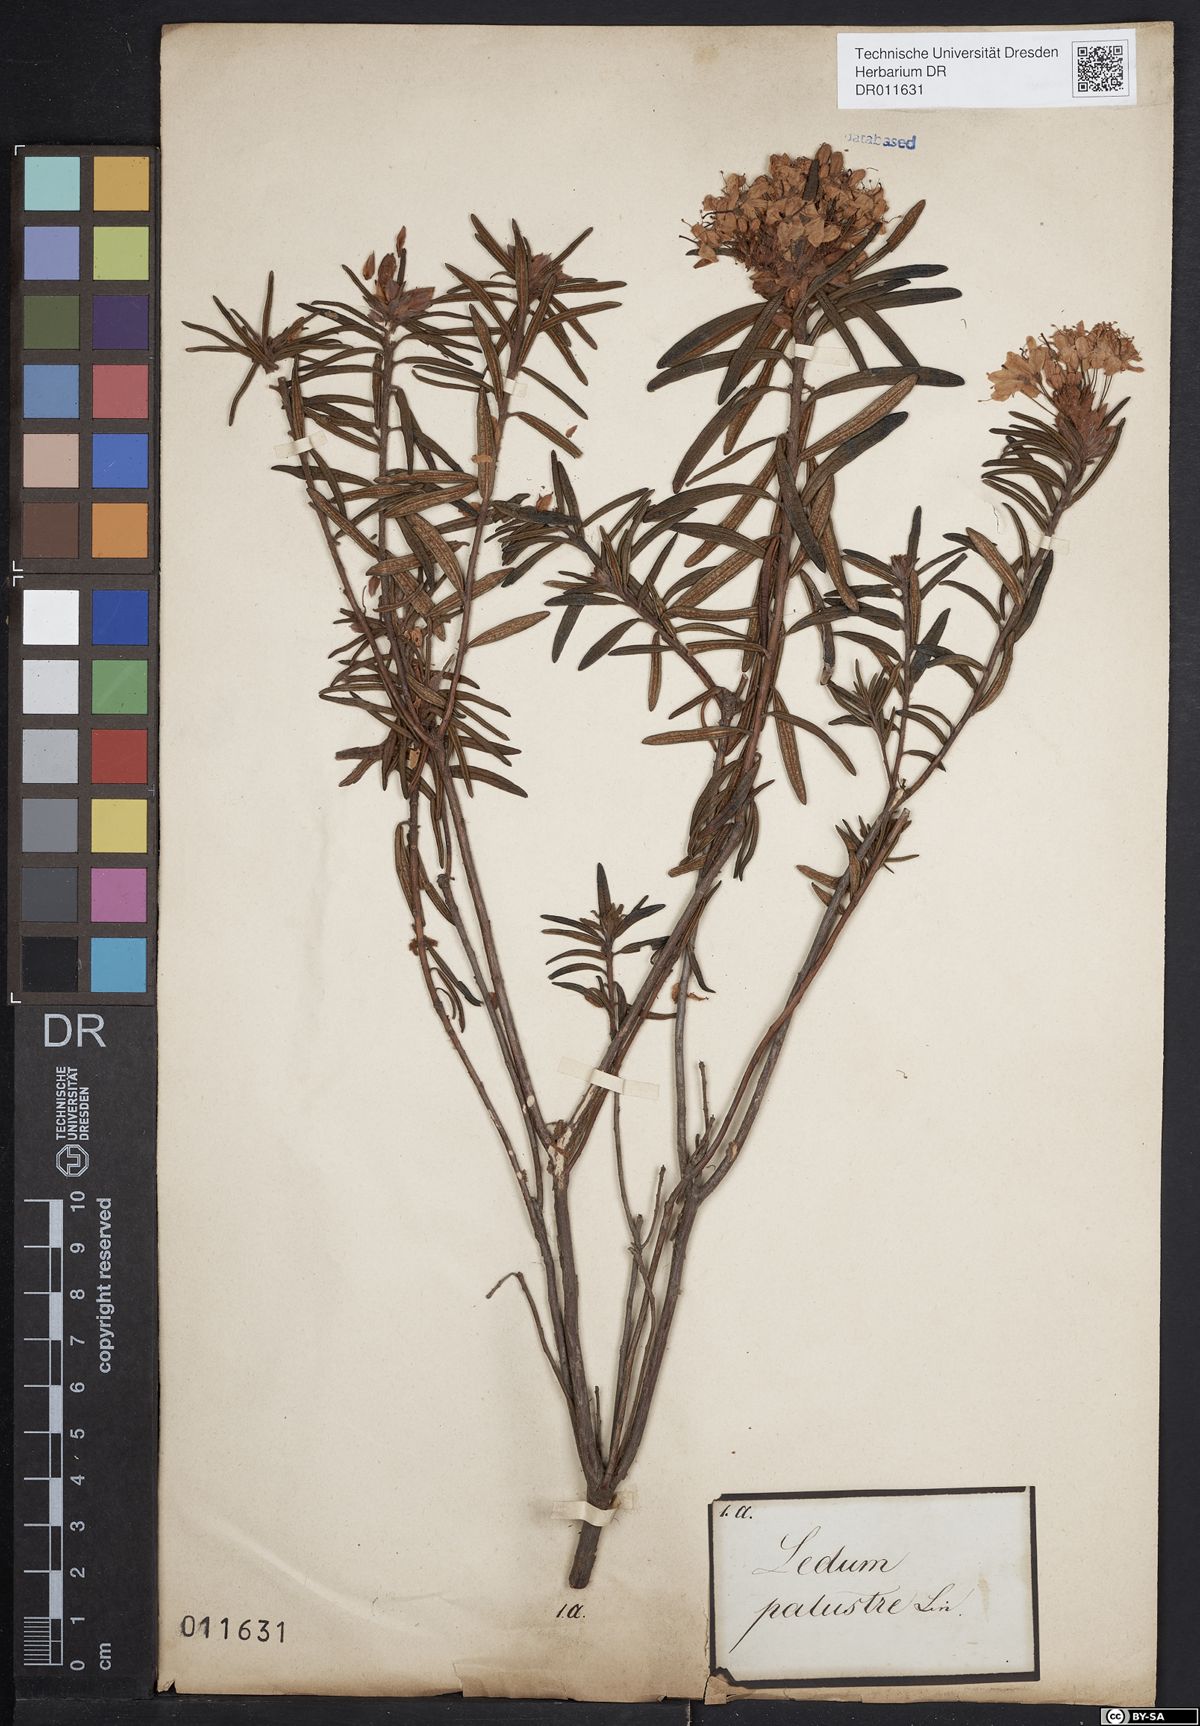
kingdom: Plantae
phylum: Tracheophyta
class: Magnoliopsida
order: Ericales
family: Ericaceae
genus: Rhododendron
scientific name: Rhododendron tomentosum
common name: Marsh labrador tea
